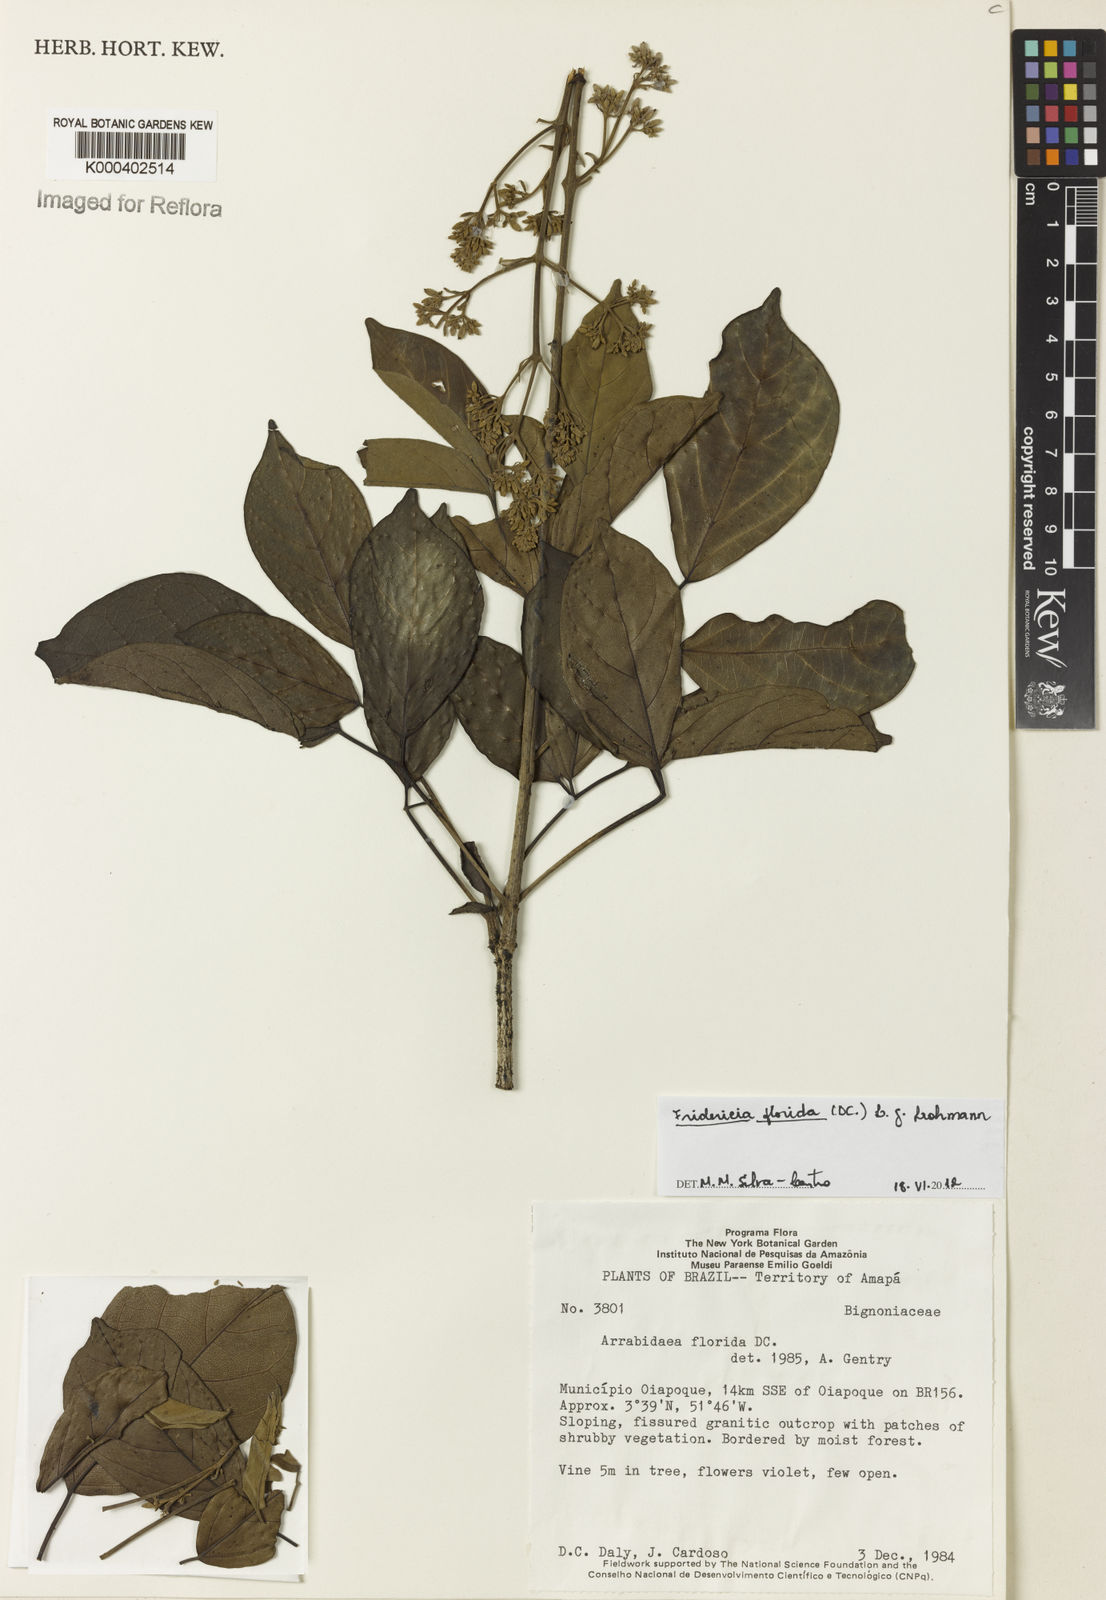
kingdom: Plantae
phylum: Tracheophyta
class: Magnoliopsida
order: Lamiales
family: Bignoniaceae
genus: Fridericia
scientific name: Fridericia florida
